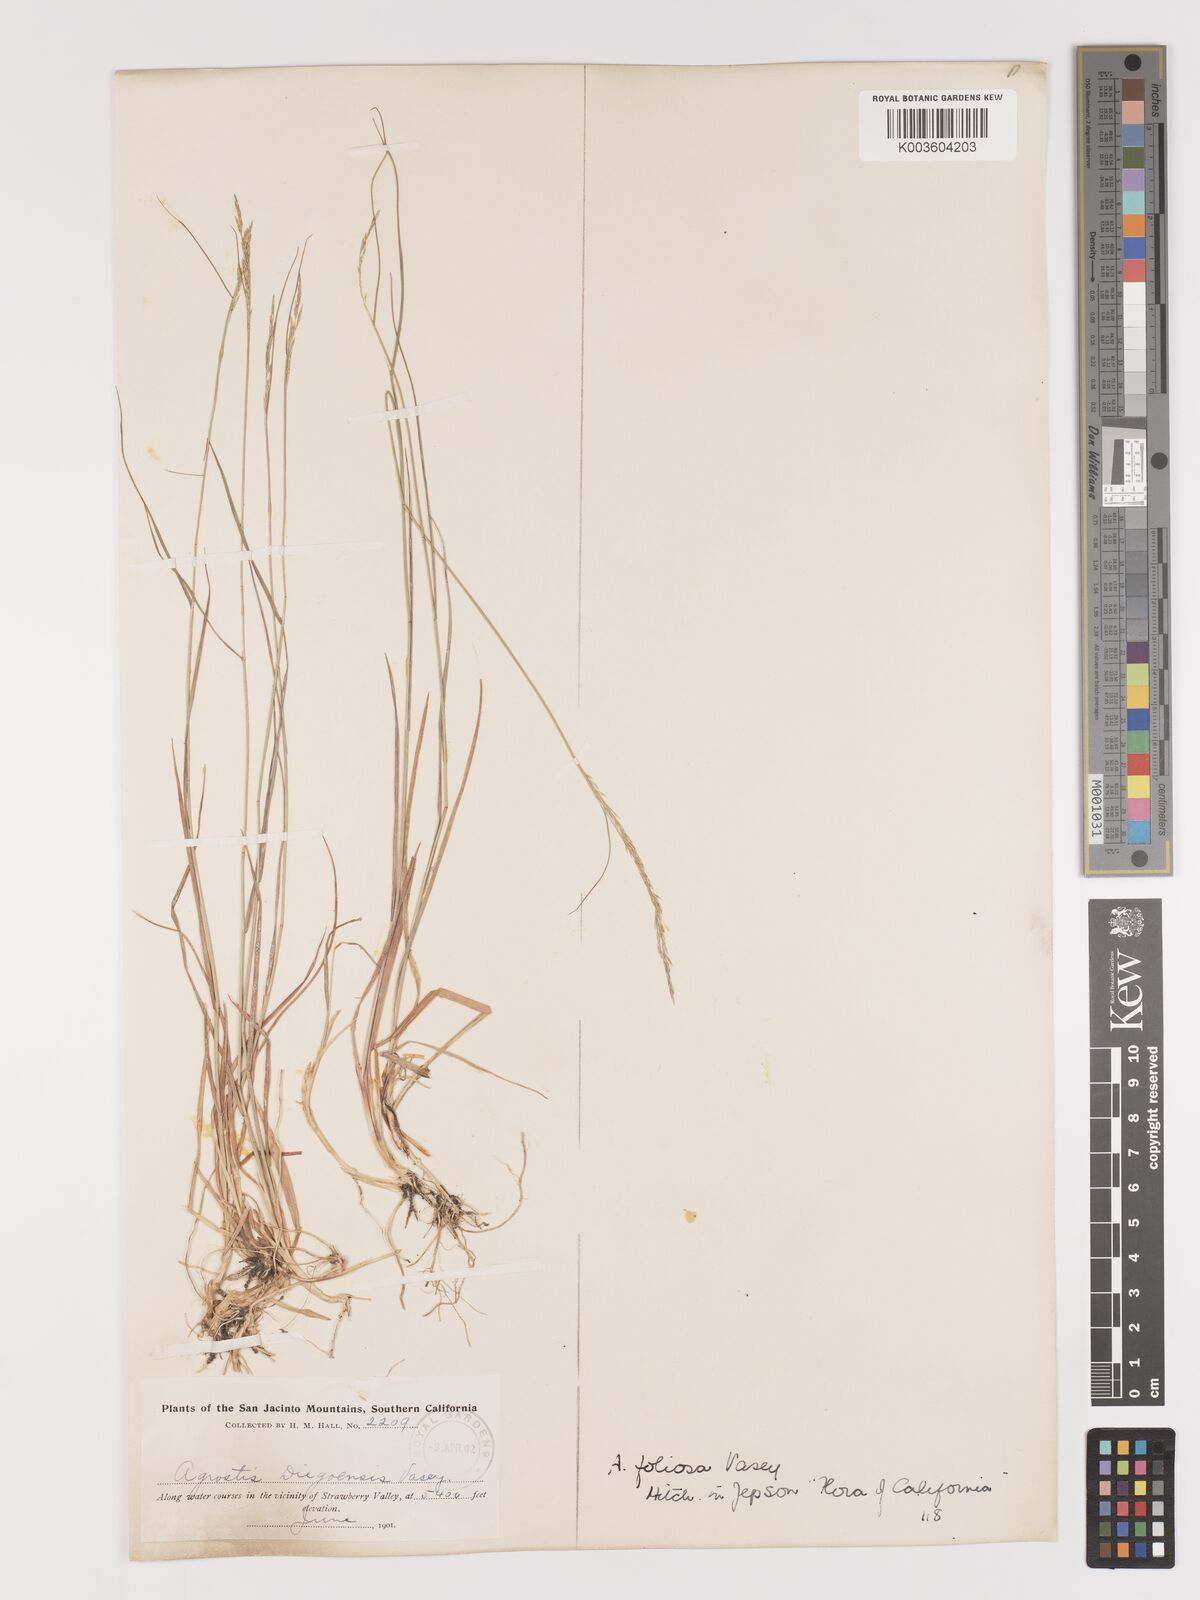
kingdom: Plantae
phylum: Tracheophyta
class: Liliopsida
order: Poales
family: Poaceae
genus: Agrostis
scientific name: Agrostis pallens
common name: Dune bent
